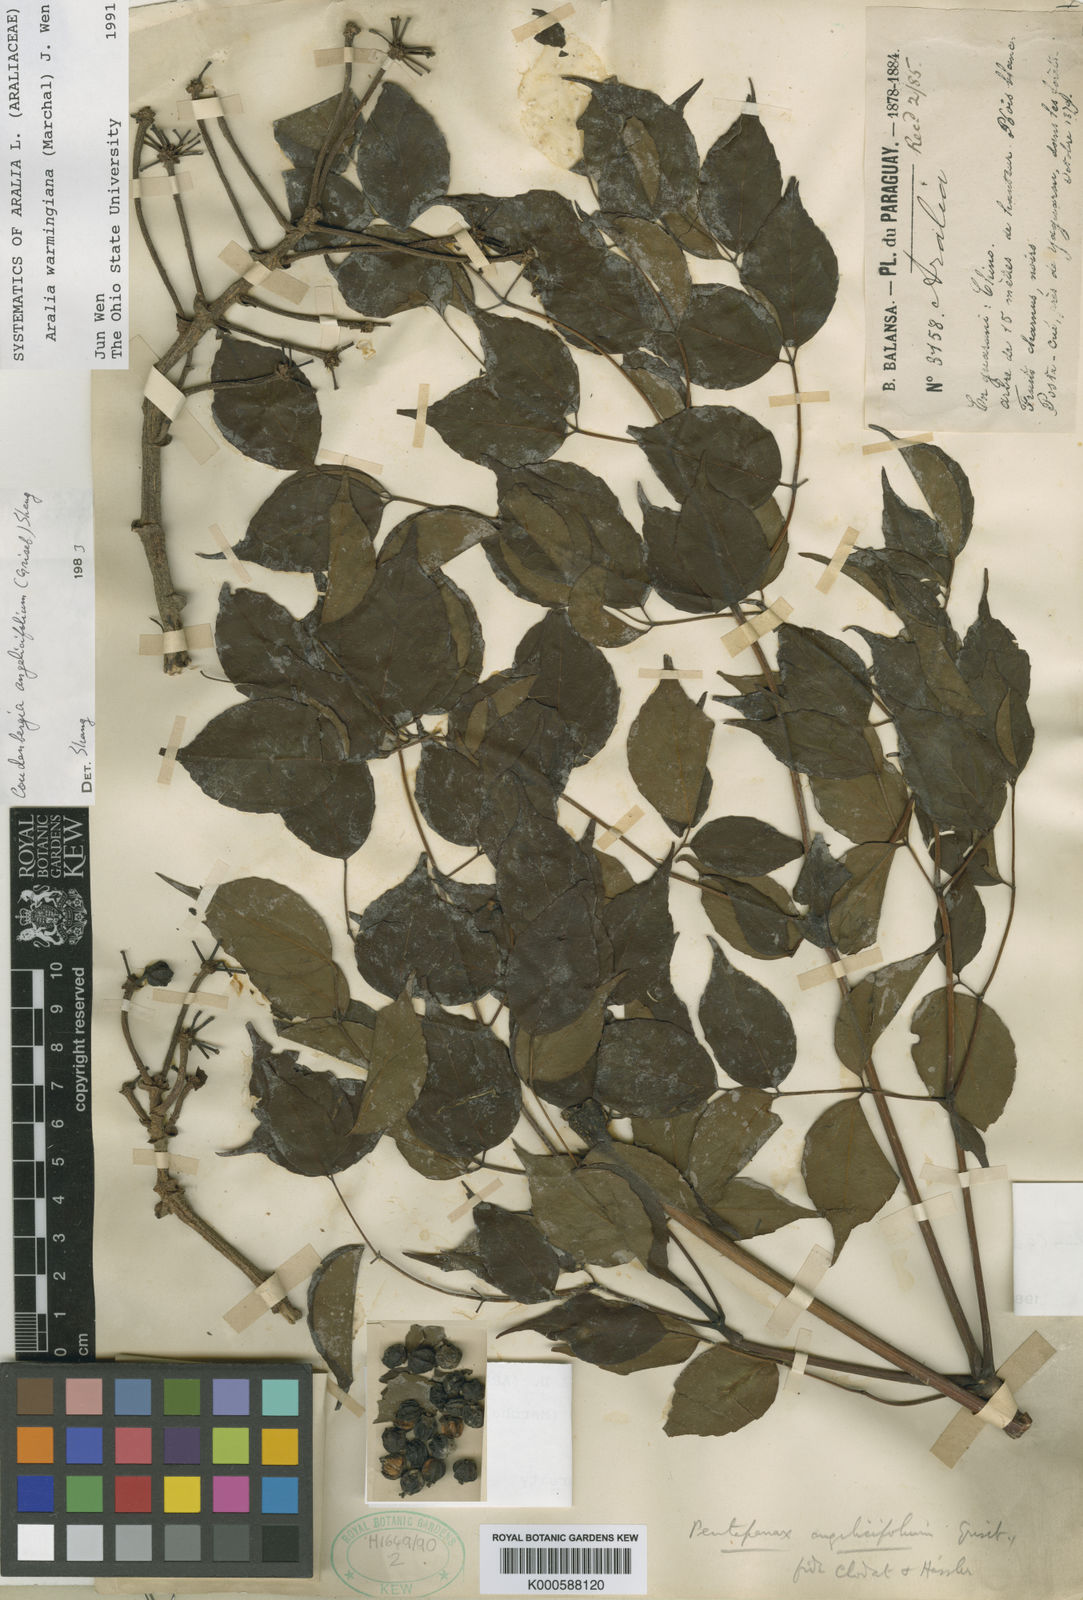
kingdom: Plantae
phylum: Tracheophyta
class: Magnoliopsida
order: Apiales
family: Araliaceae
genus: Aralia
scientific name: Aralia warmingiana
